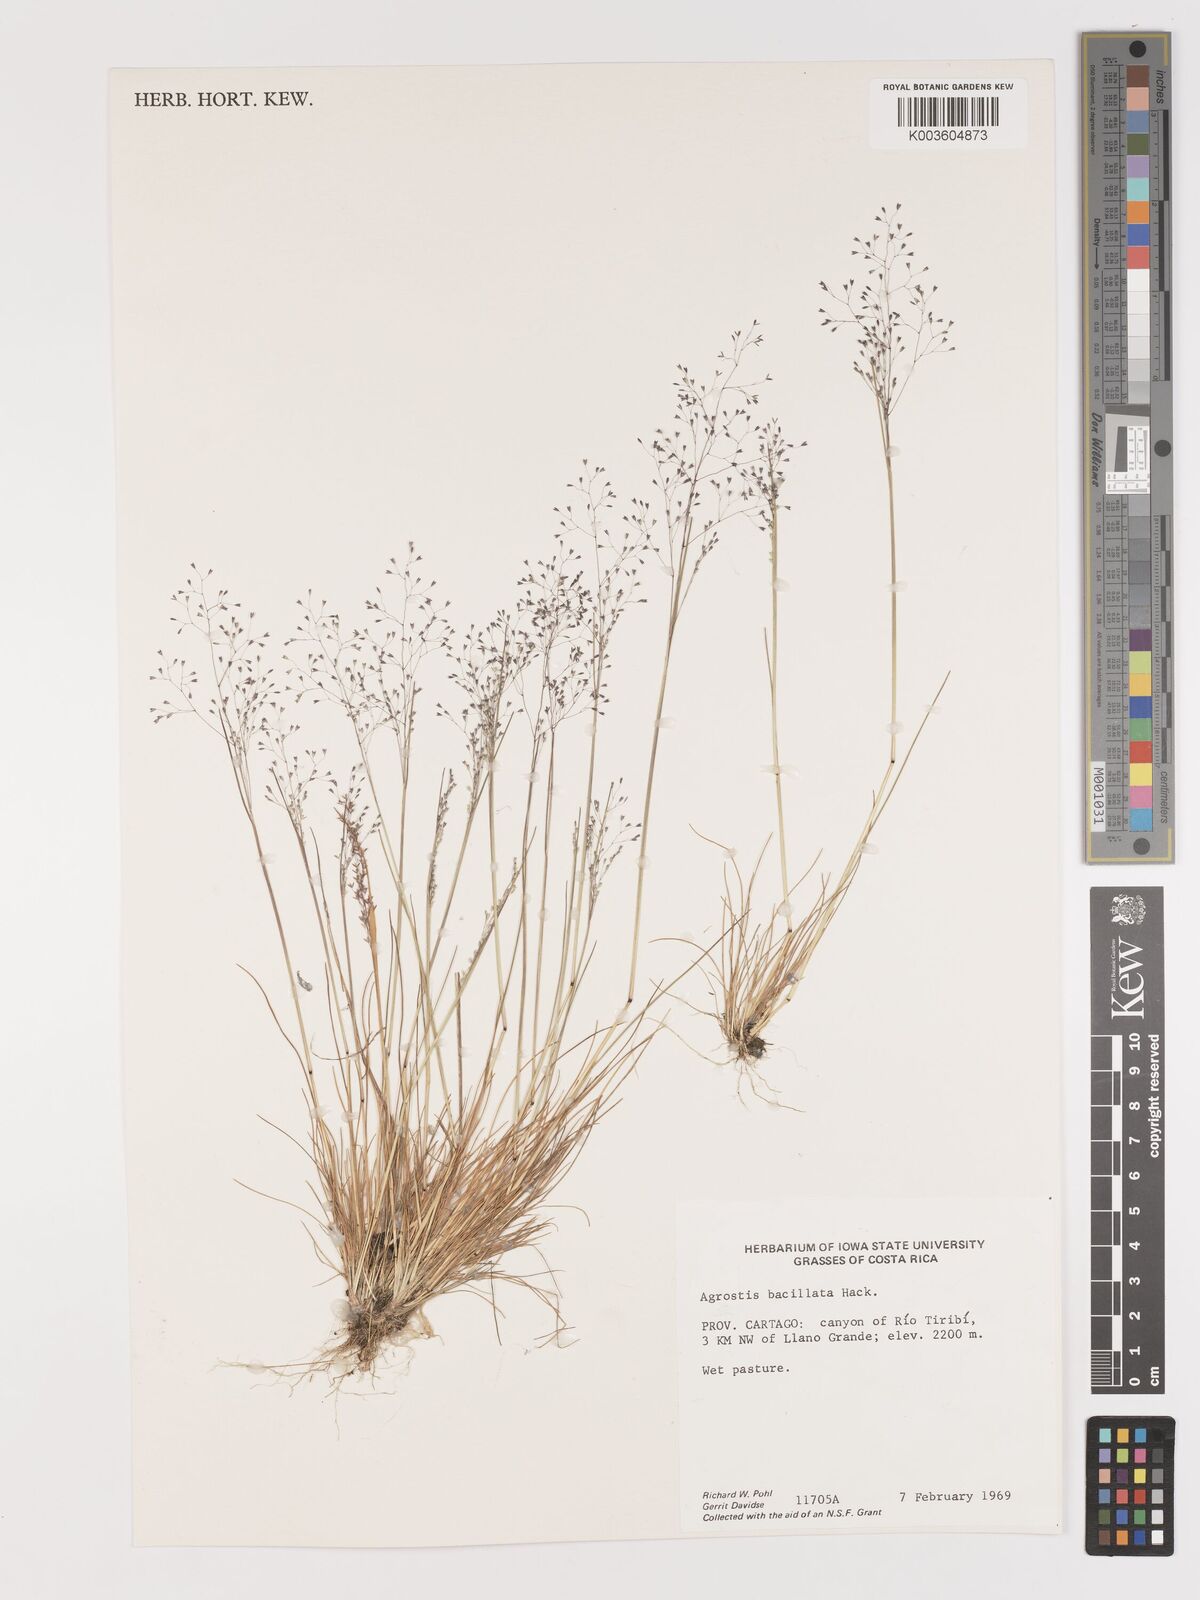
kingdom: Plantae
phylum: Tracheophyta
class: Liliopsida
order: Poales
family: Poaceae
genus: Podagrostis
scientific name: Podagrostis bacillata
